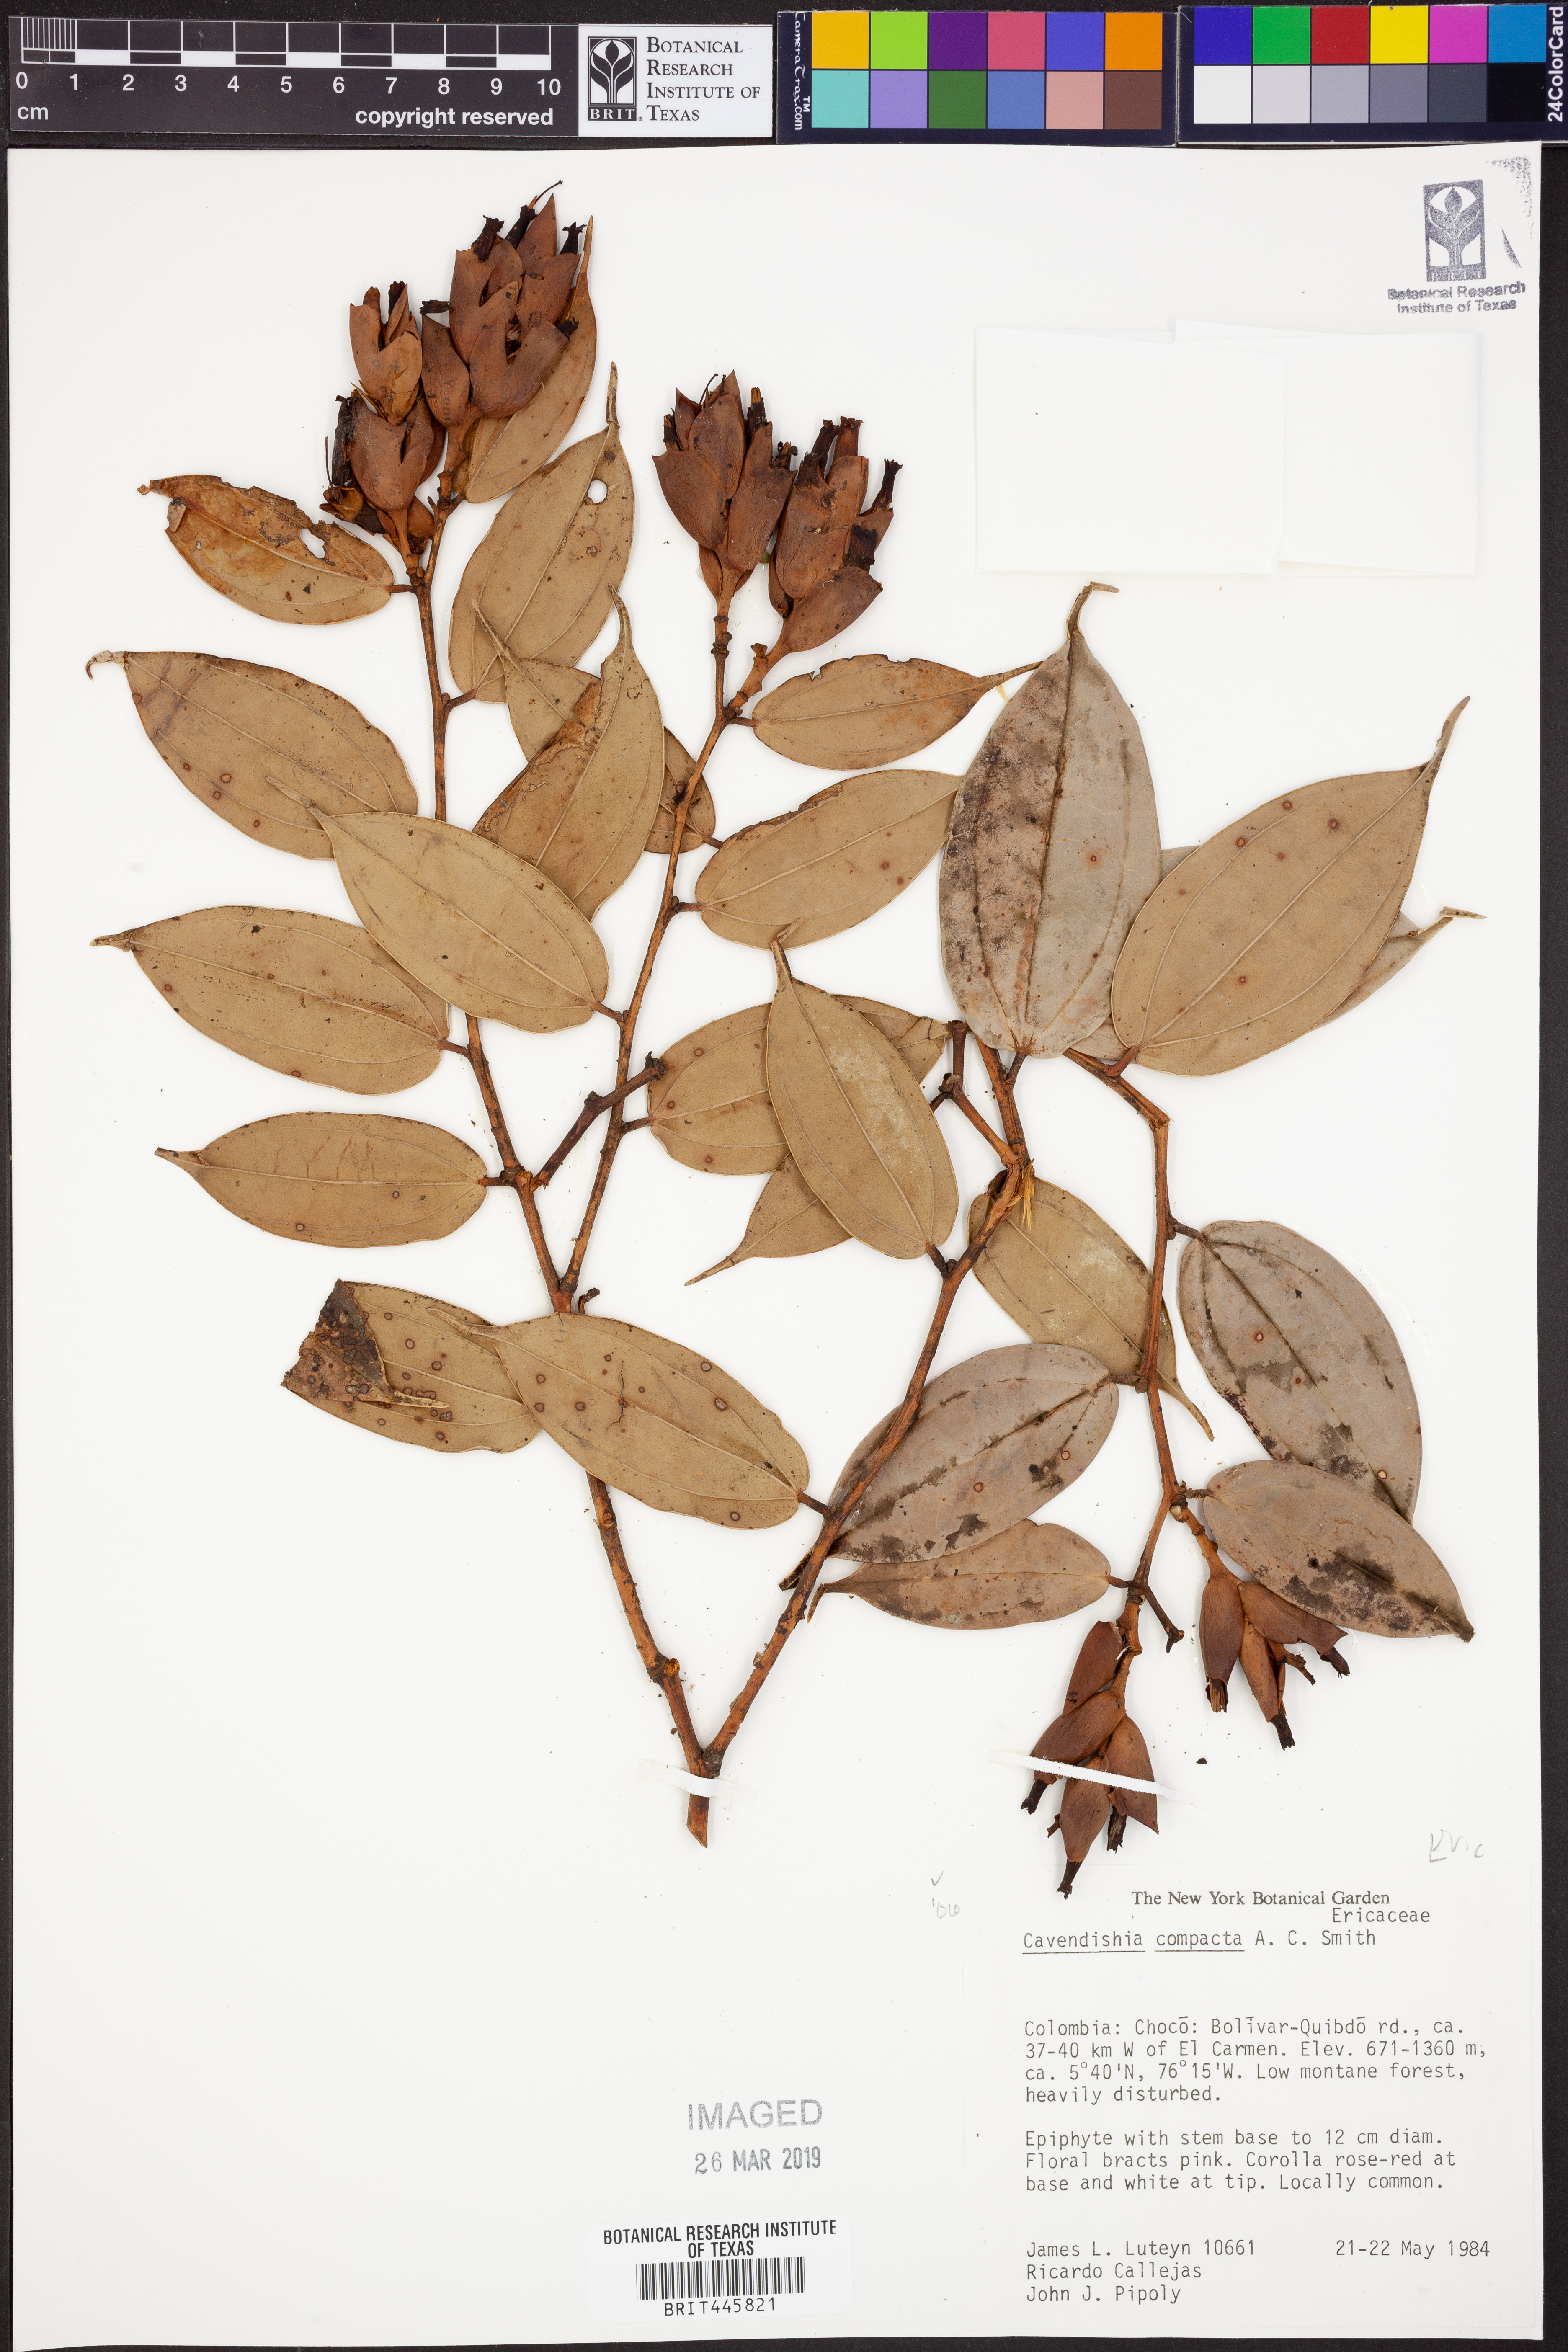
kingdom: Plantae
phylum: Tracheophyta
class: Magnoliopsida
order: Ericales
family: Ericaceae
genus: Cavendishia
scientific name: Cavendishia compacta
